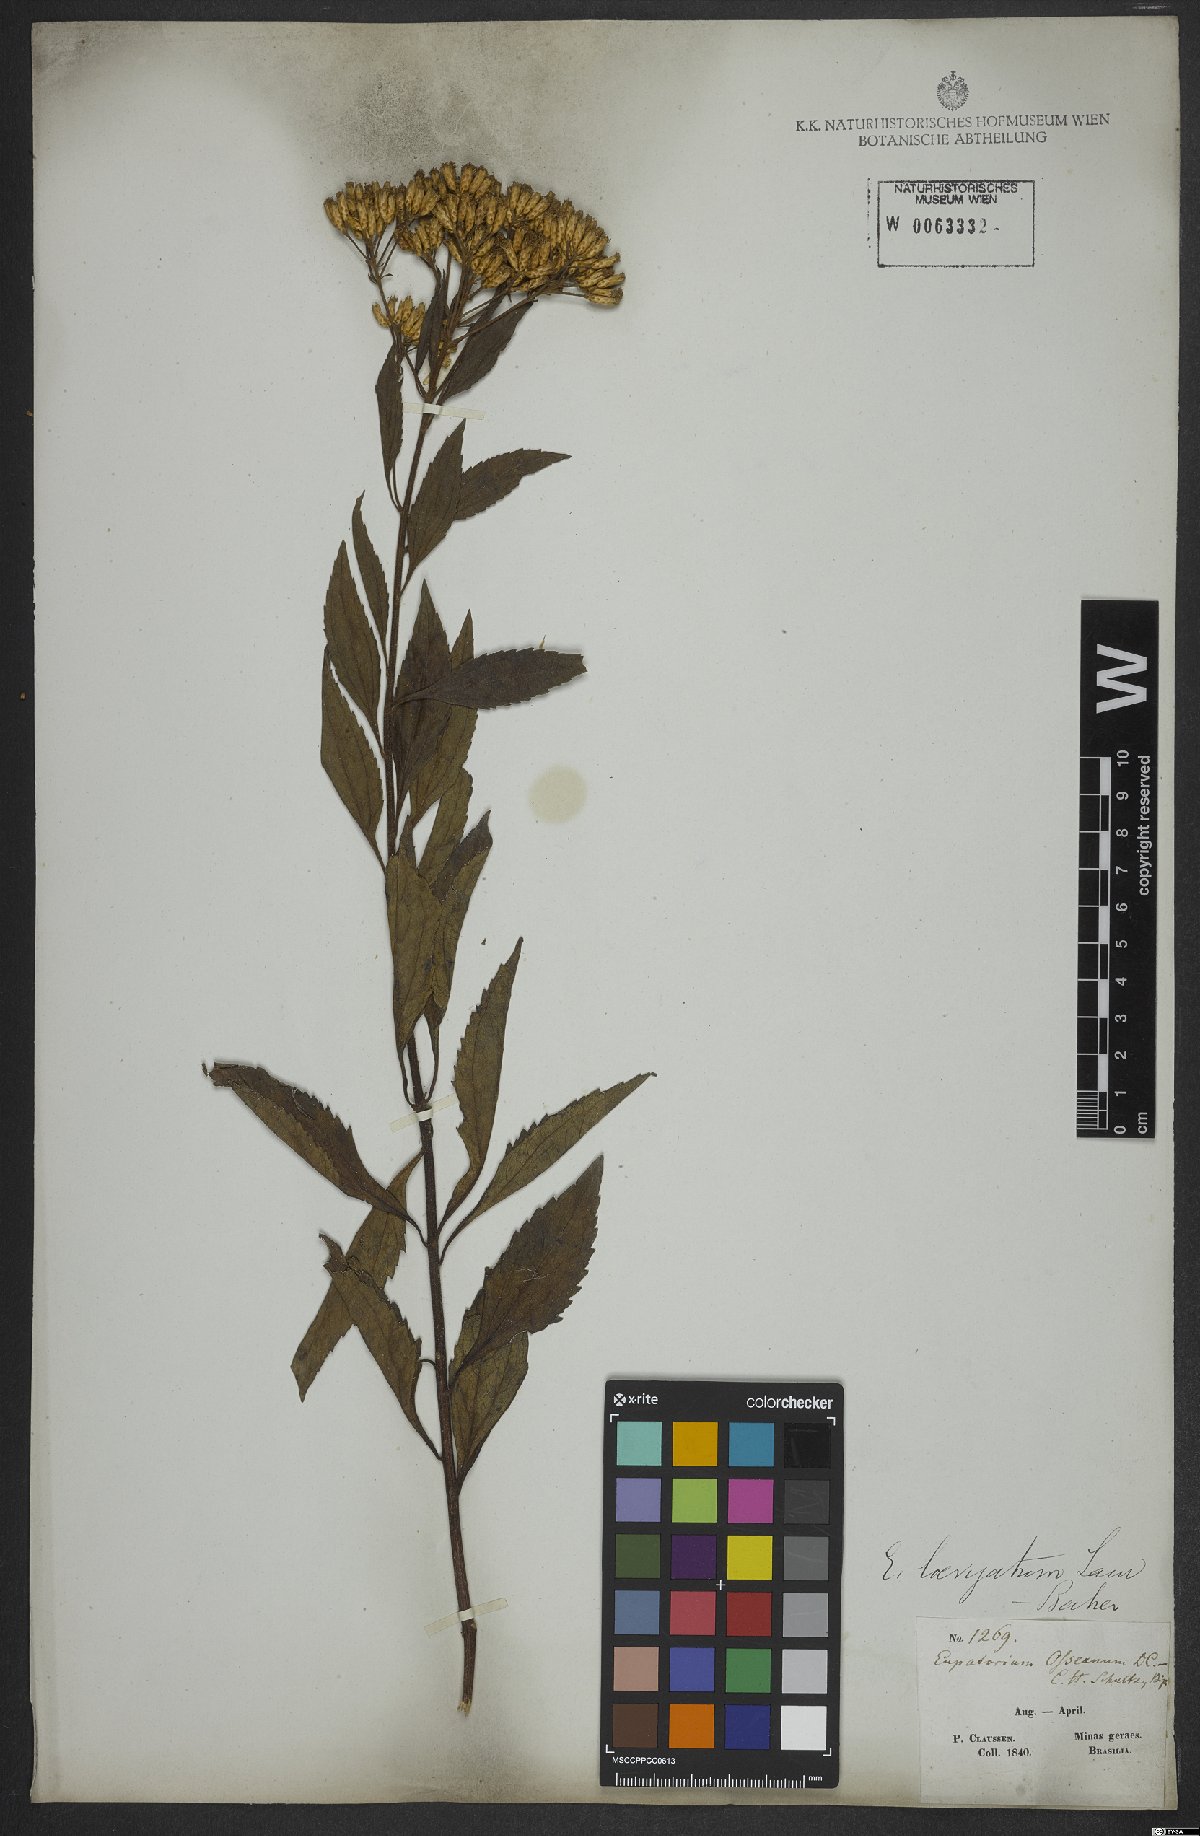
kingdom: Plantae
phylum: Tracheophyta
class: Magnoliopsida
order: Asterales
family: Asteraceae
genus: Eupatorium
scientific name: Eupatorium laevigatum
